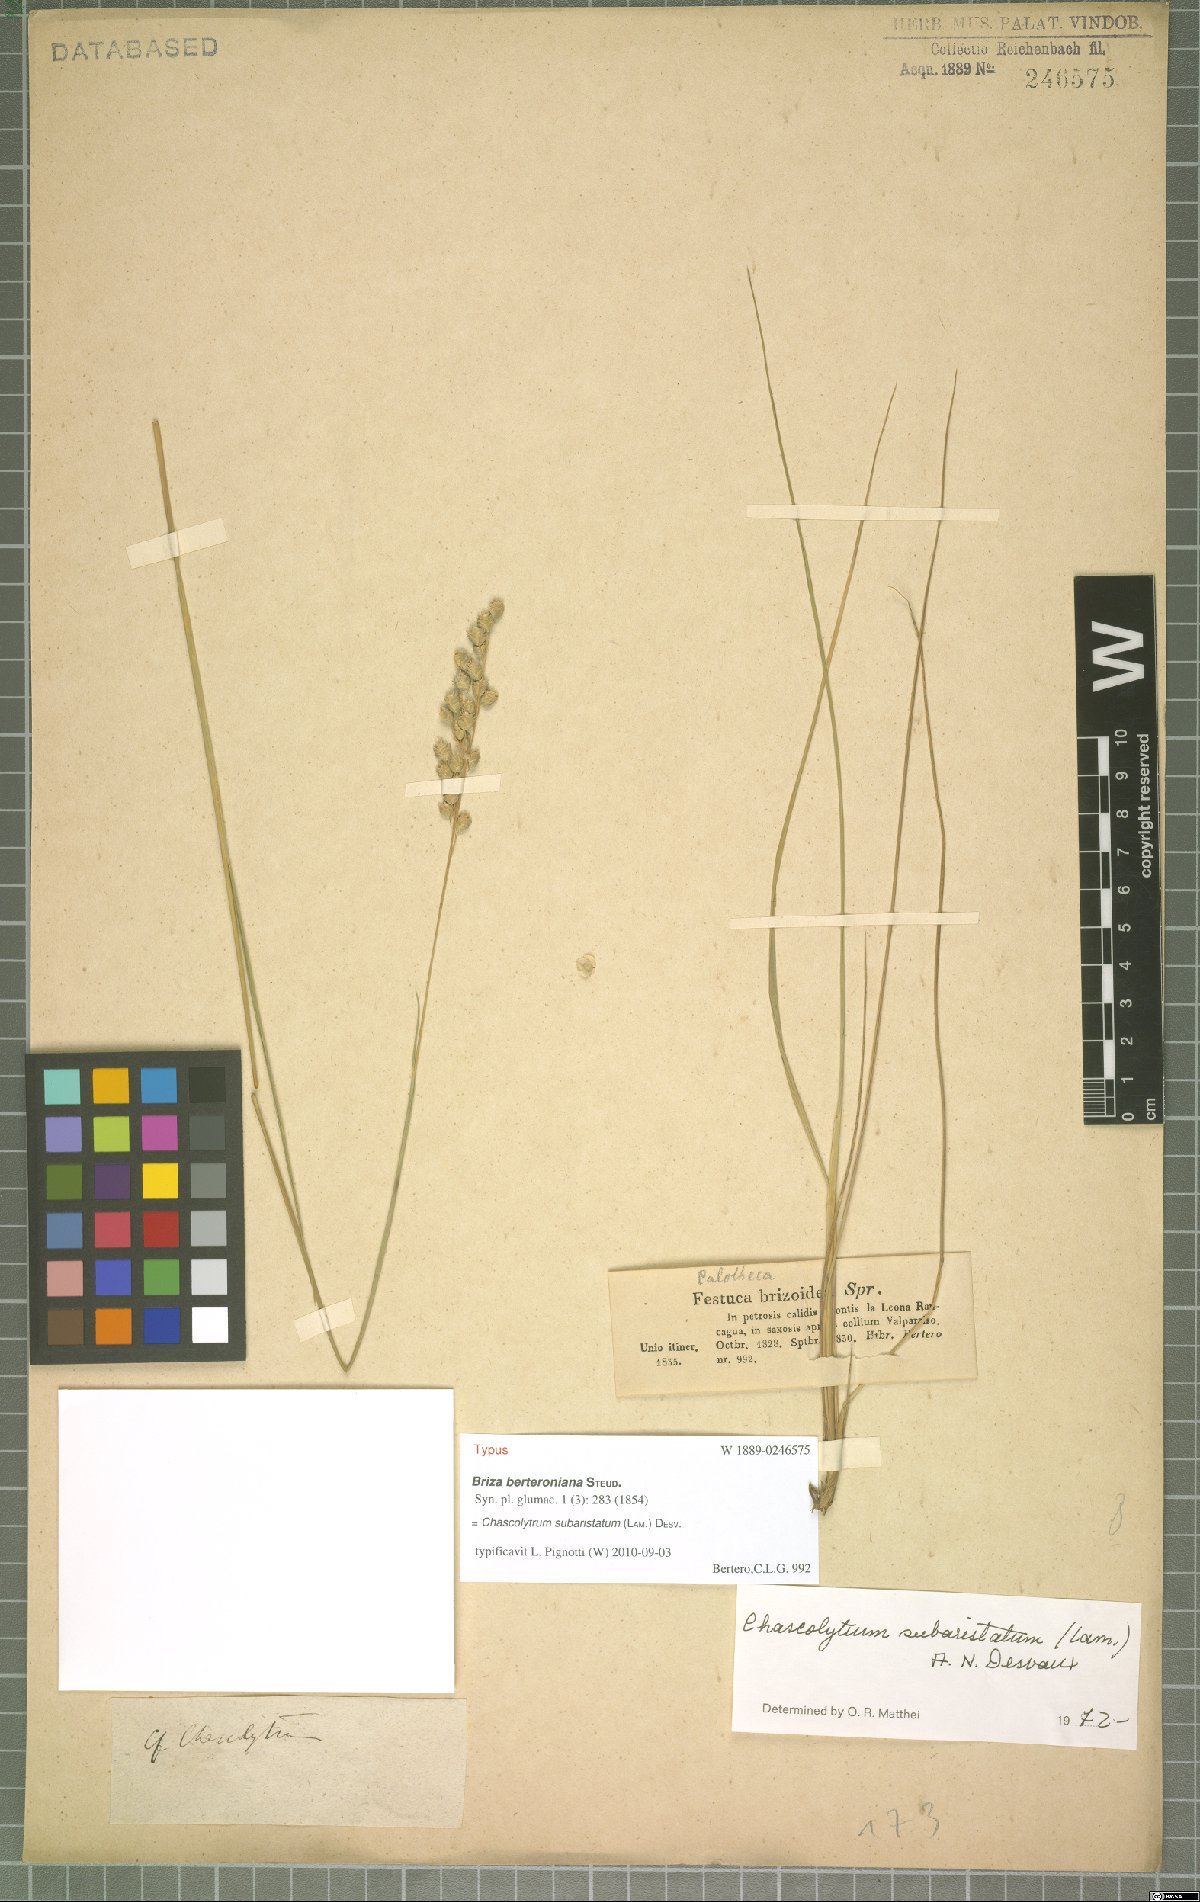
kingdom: Plantae
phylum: Tracheophyta
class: Liliopsida
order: Poales
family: Poaceae
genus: Chascolytrum
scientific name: Chascolytrum subaristatum
